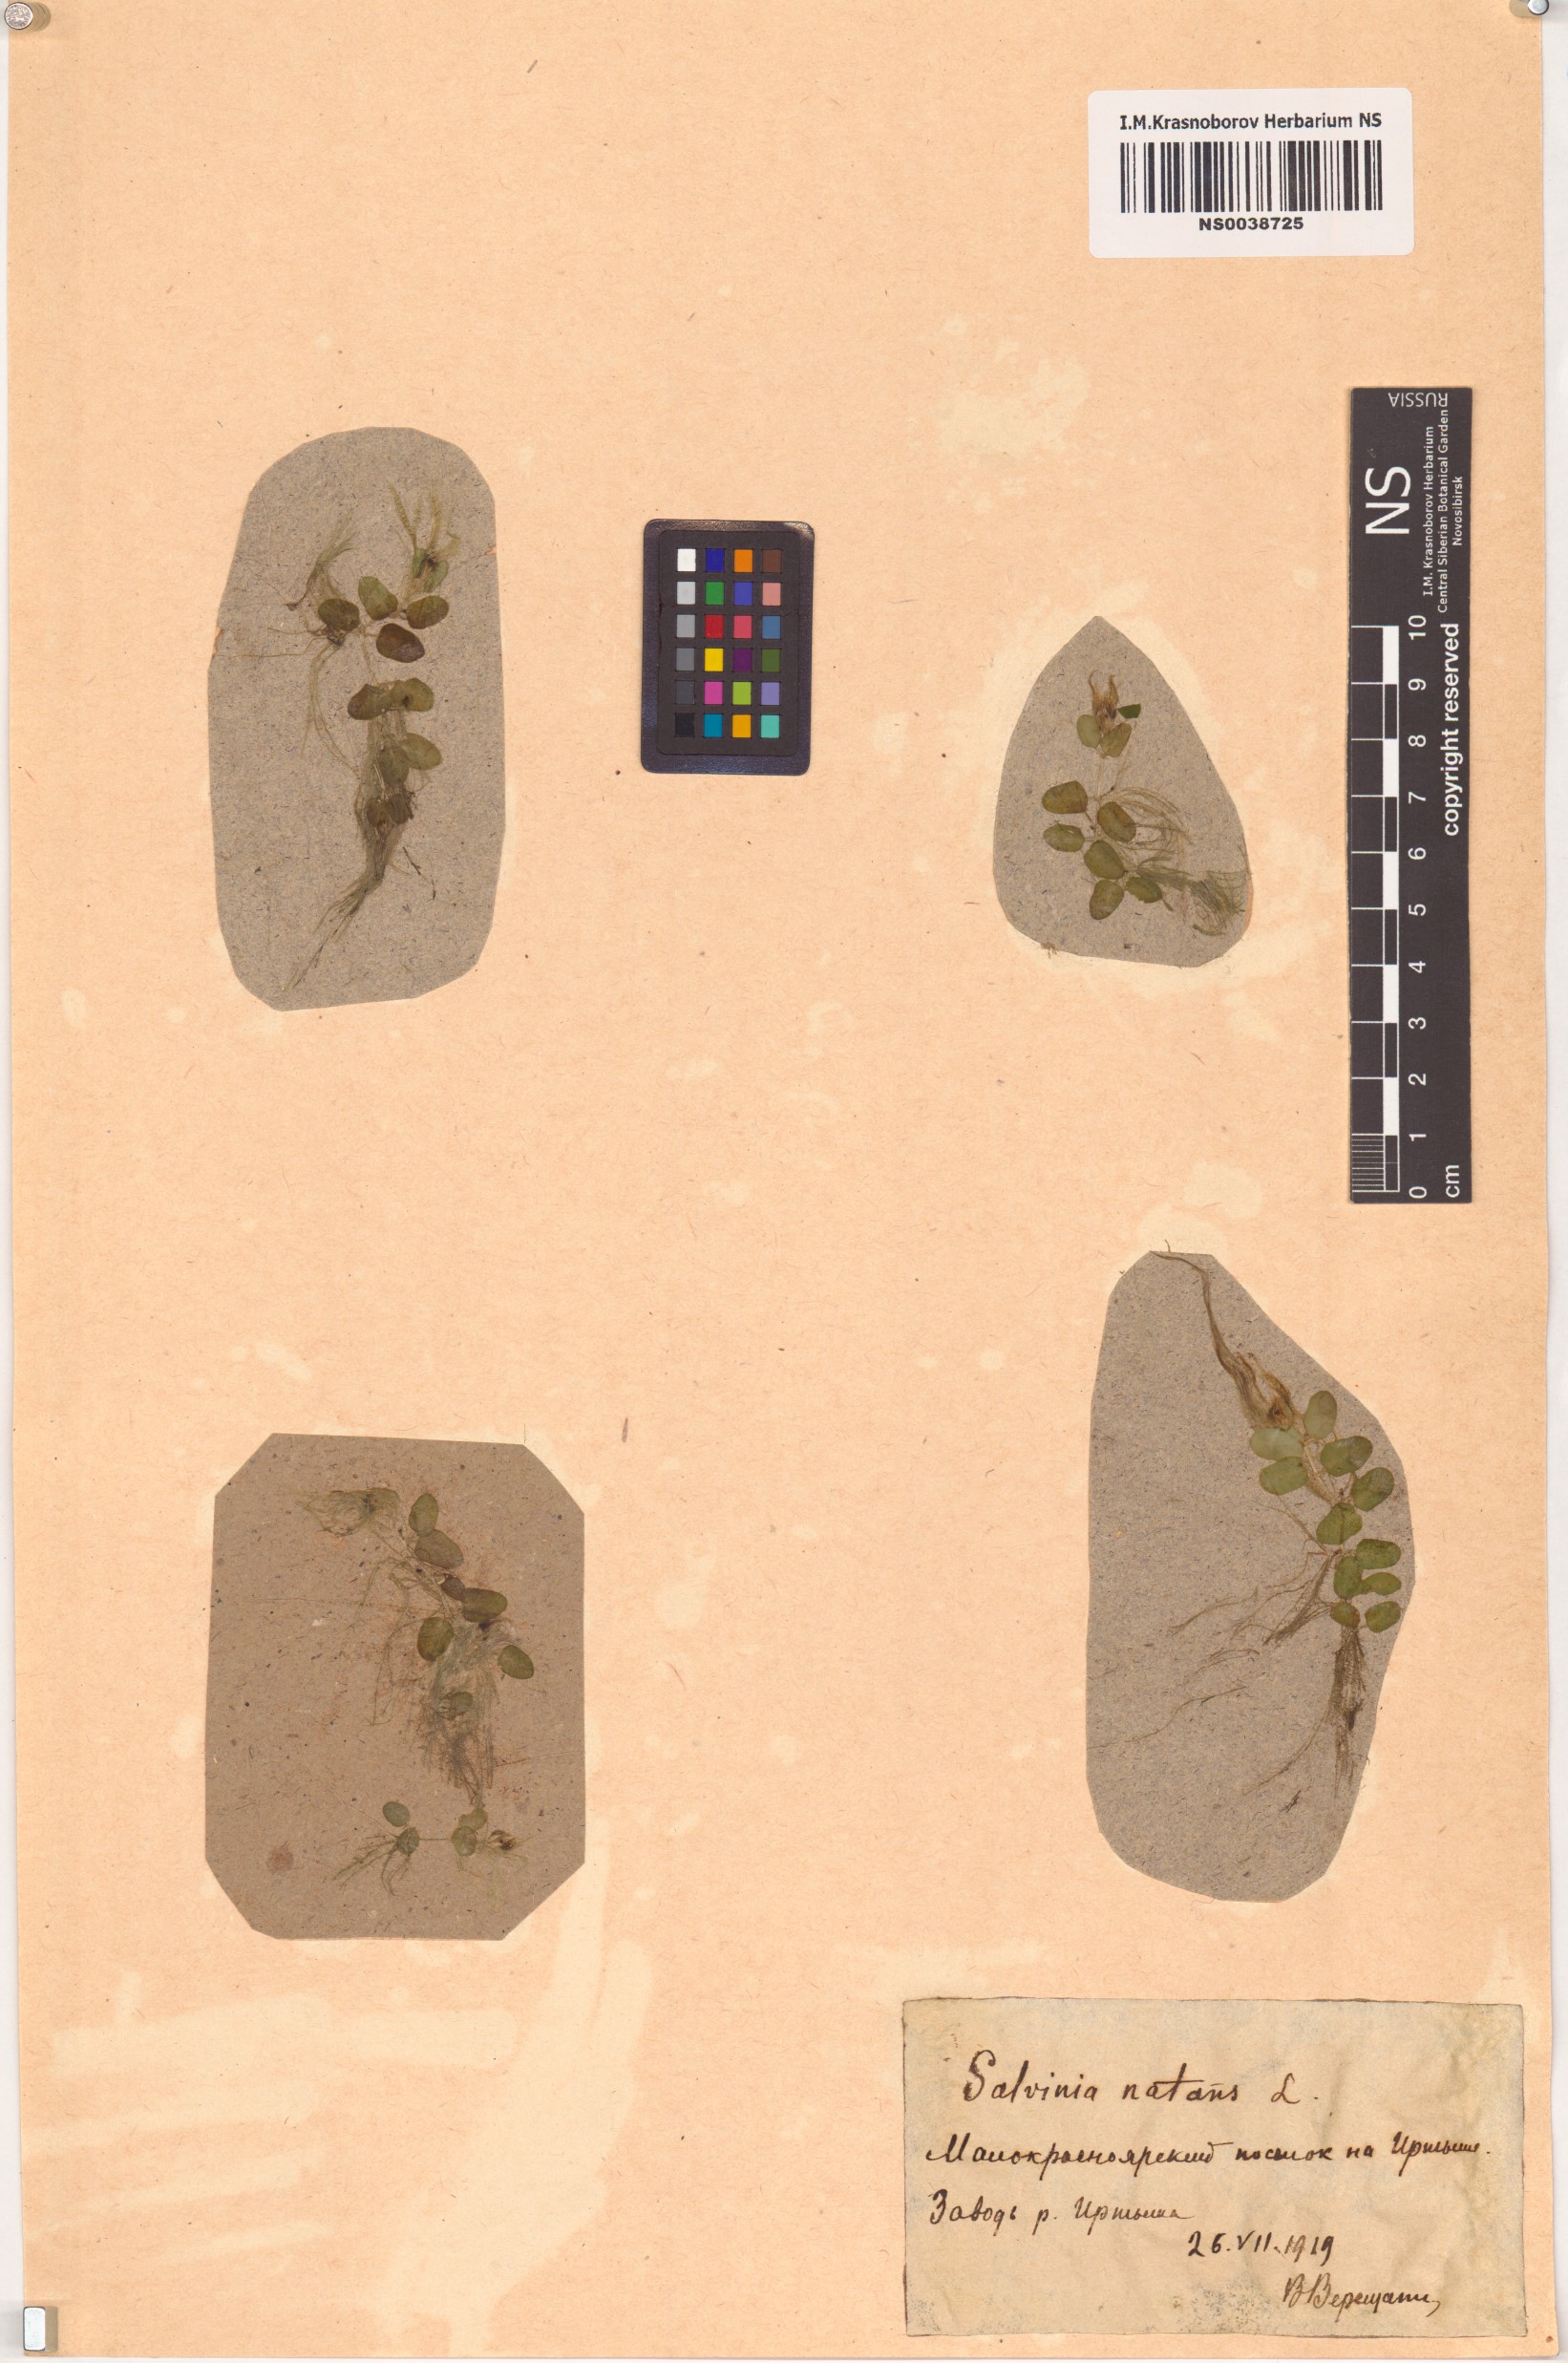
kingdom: Plantae
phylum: Tracheophyta
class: Polypodiopsida
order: Salviniales
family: Salviniaceae
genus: Salvinia
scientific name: Salvinia natans
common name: Floating fern
